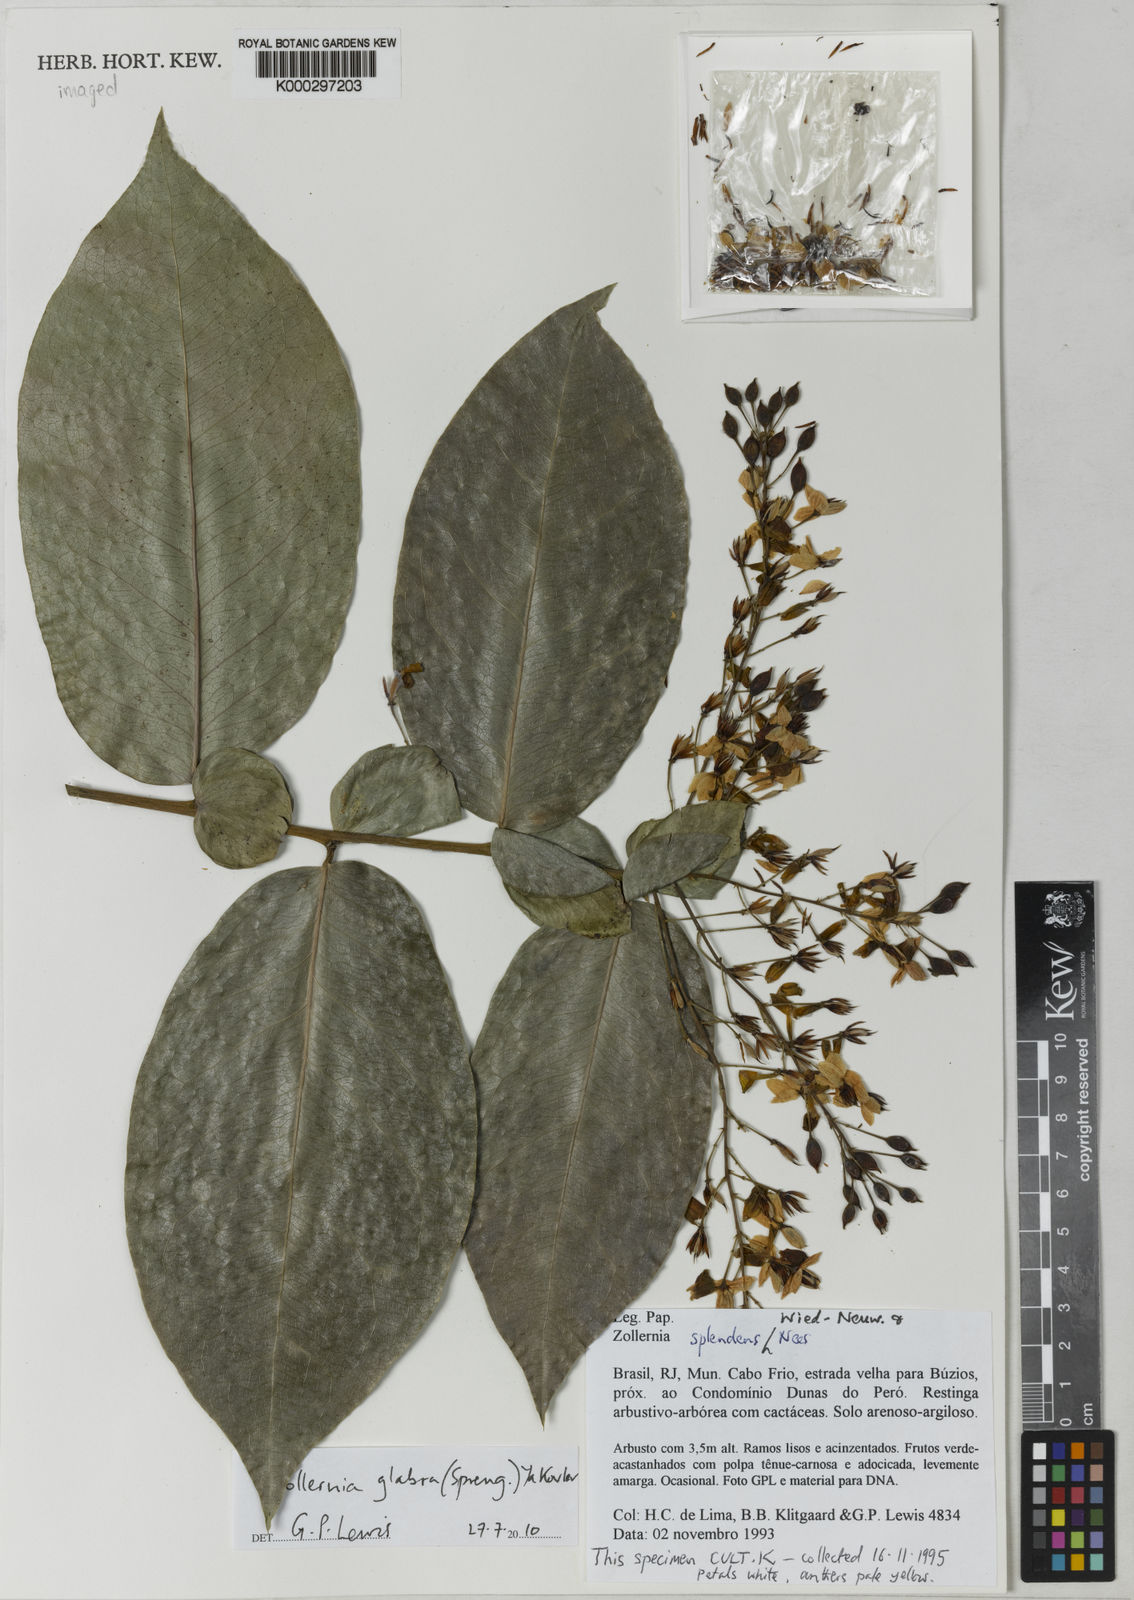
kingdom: Plantae
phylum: Tracheophyta
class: Magnoliopsida
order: Fabales
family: Fabaceae
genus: Zollernia
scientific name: Zollernia
